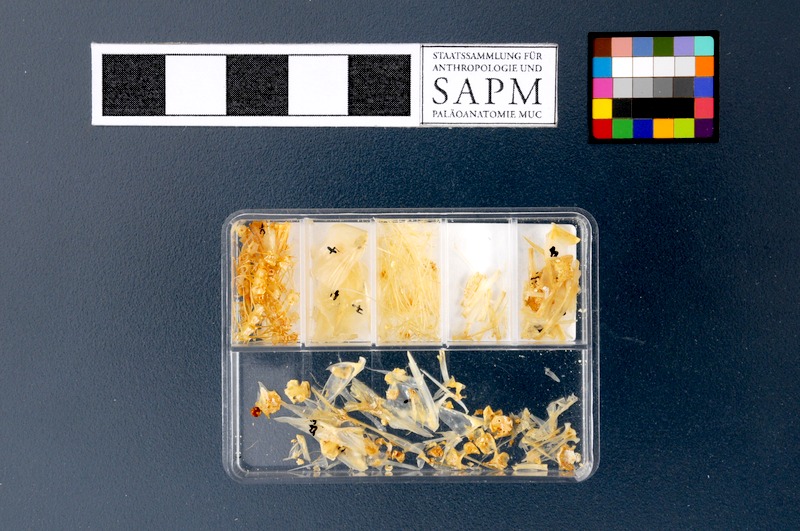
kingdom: Animalia
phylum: Chordata
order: Clupeiformes
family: Clupeidae
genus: Sardina
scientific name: Sardina pilchardus
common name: Pilchard
